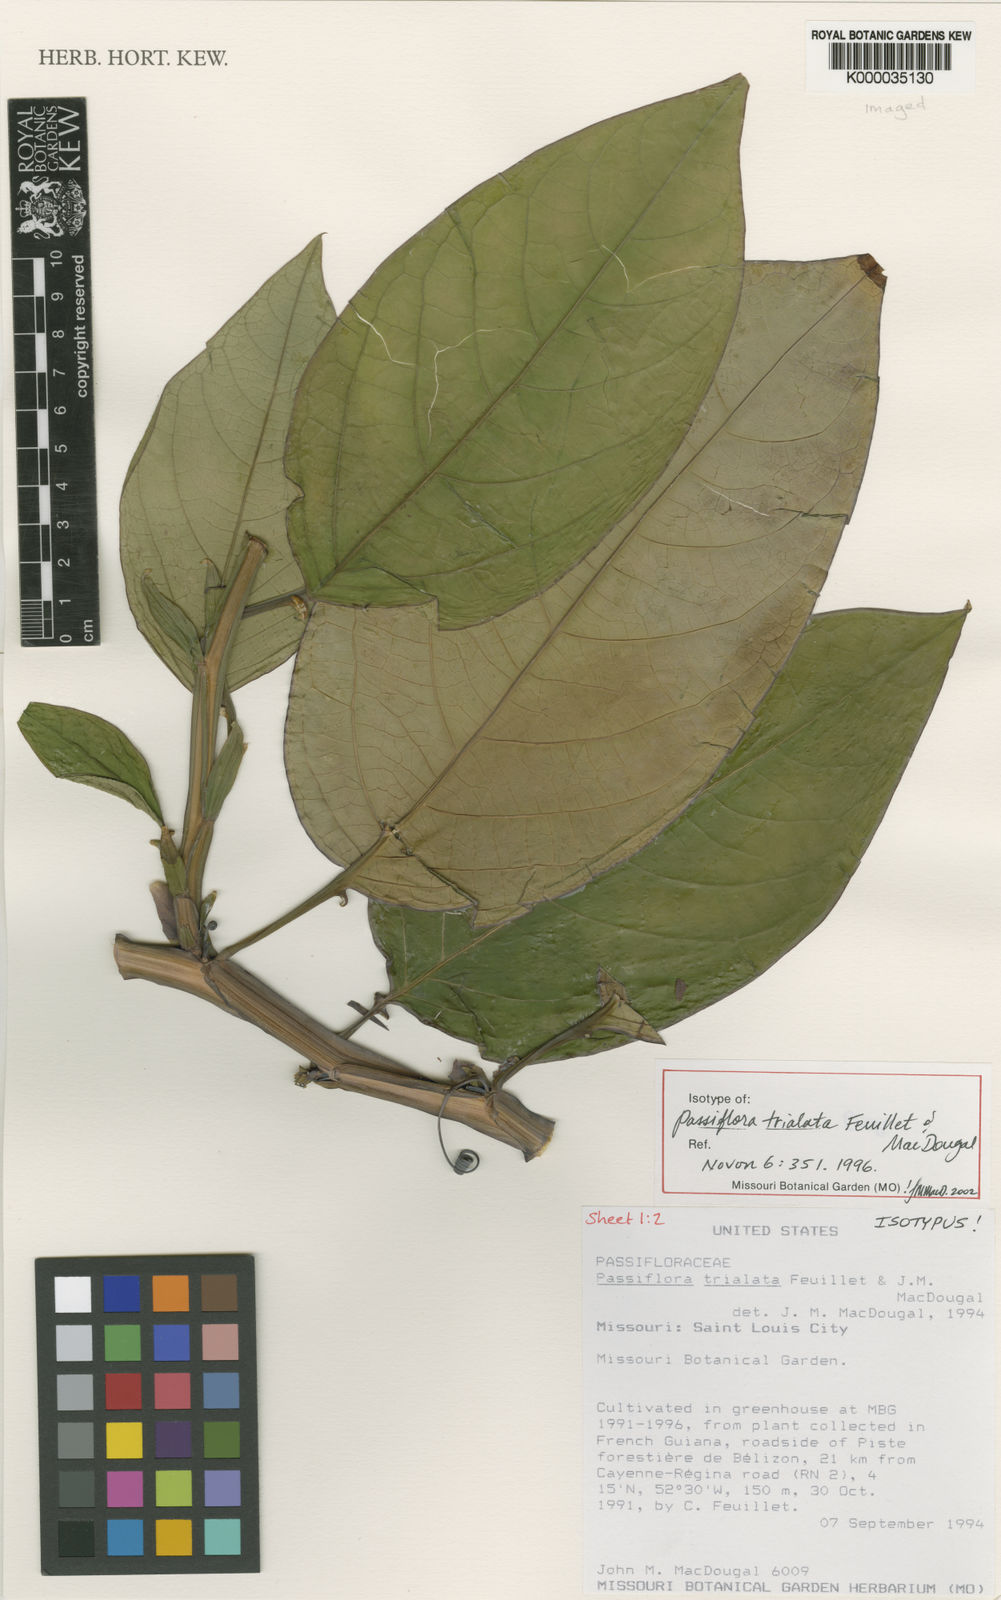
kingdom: Plantae
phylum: Tracheophyta
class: Magnoliopsida
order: Malpighiales
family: Passifloraceae
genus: Passiflora
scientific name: Passiflora trialata
